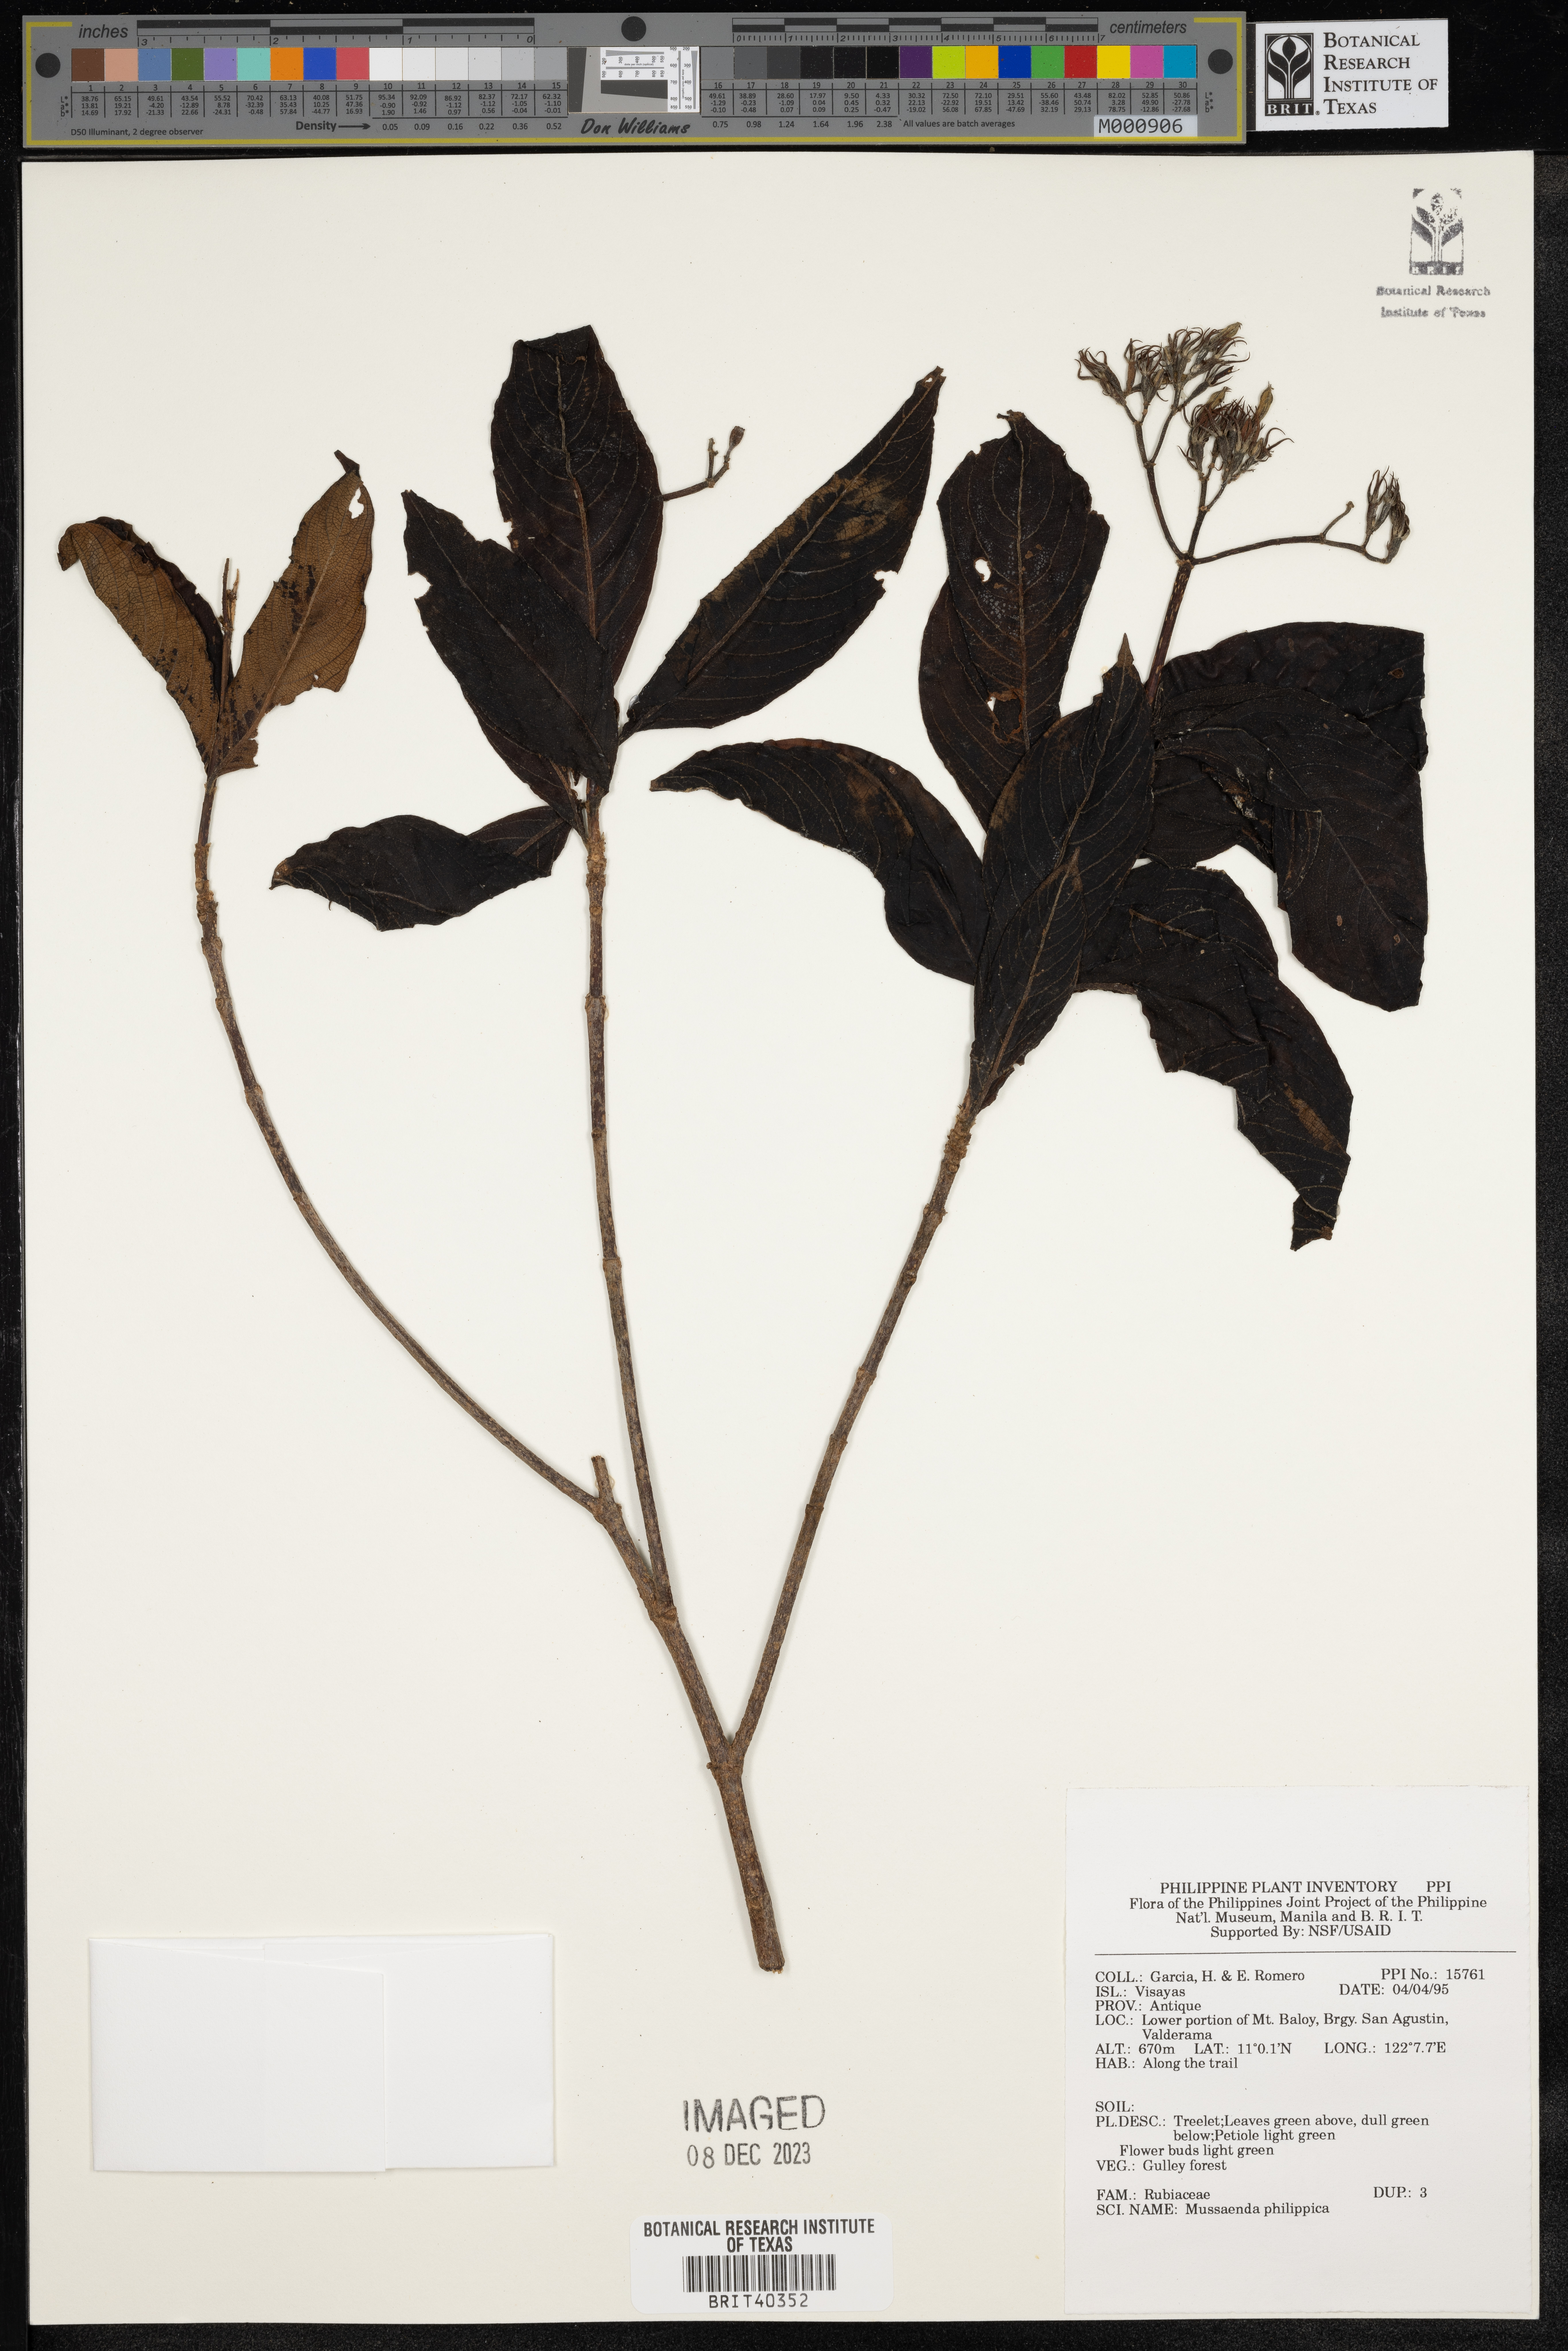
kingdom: Plantae
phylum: Tracheophyta
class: Magnoliopsida
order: Gentianales
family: Rubiaceae
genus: Mussaenda
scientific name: Mussaenda philippica
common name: Philippine mussaenda
